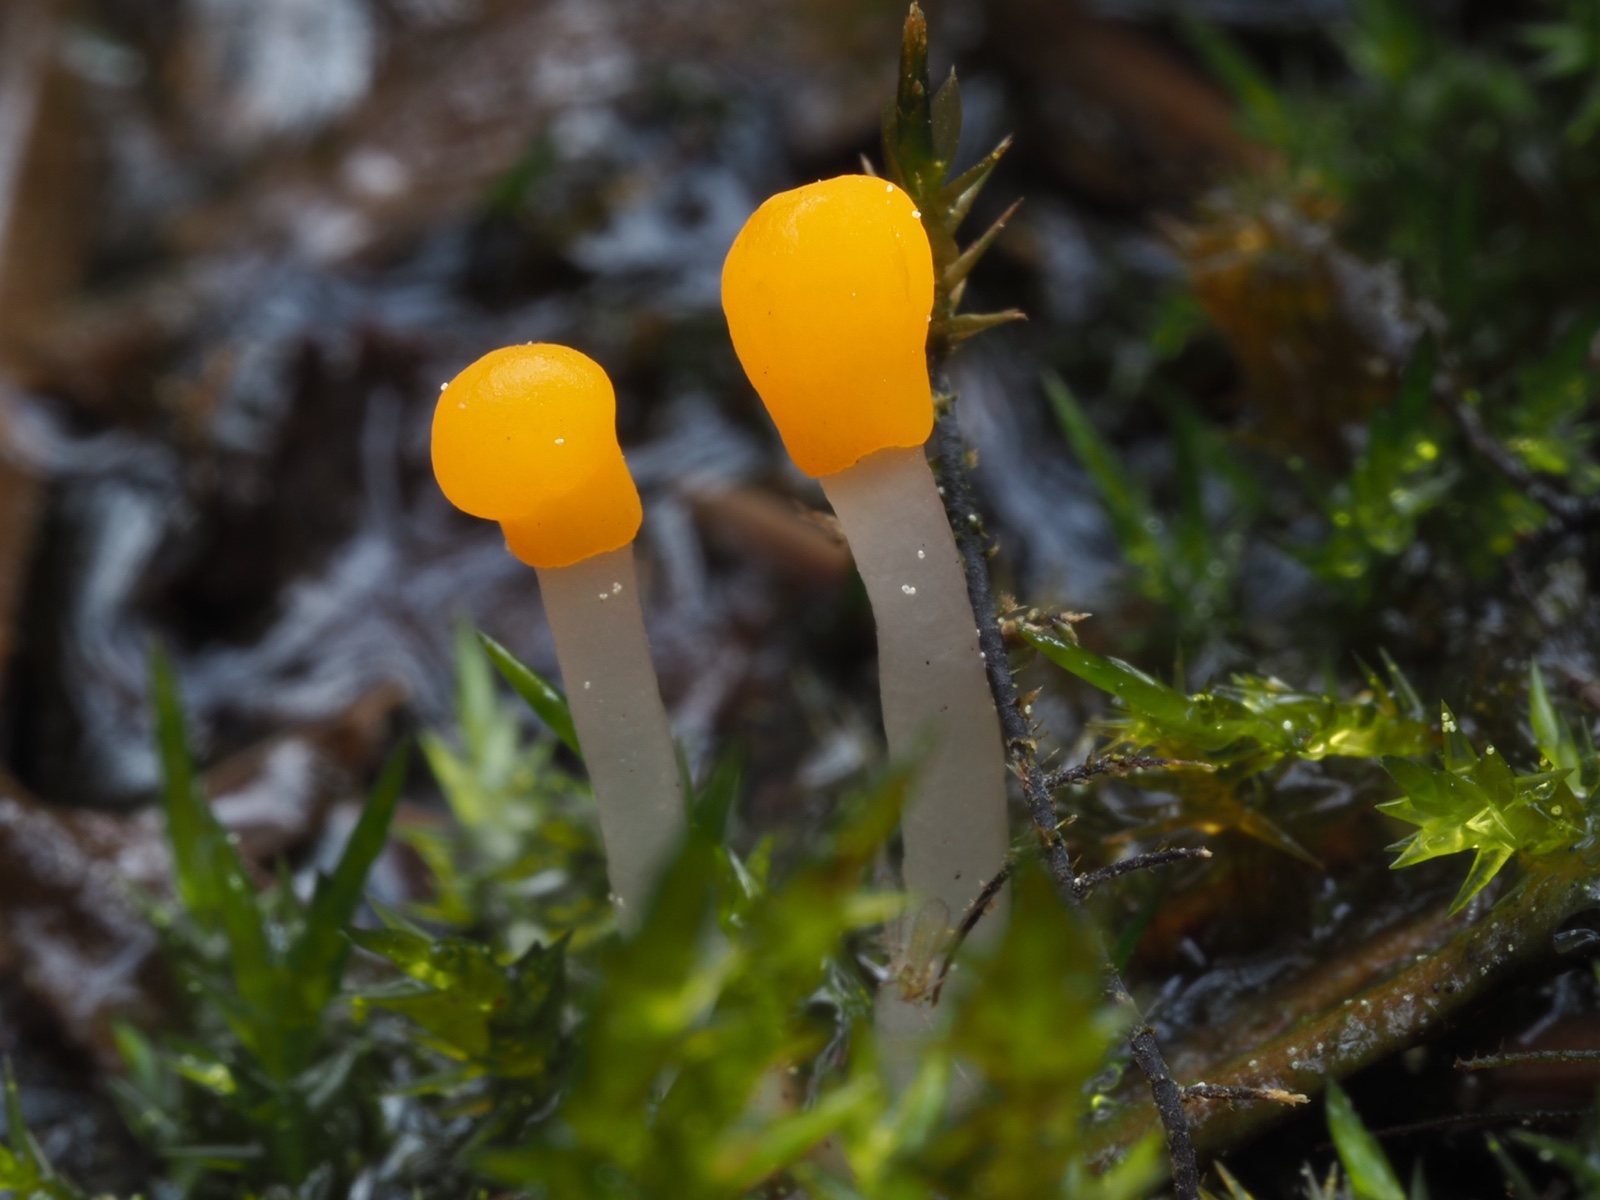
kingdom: Fungi
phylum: Ascomycota
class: Leotiomycetes
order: Helotiales
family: Cenangiaceae
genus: Mitrula
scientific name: Mitrula paludosa
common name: gul nøkketunge
